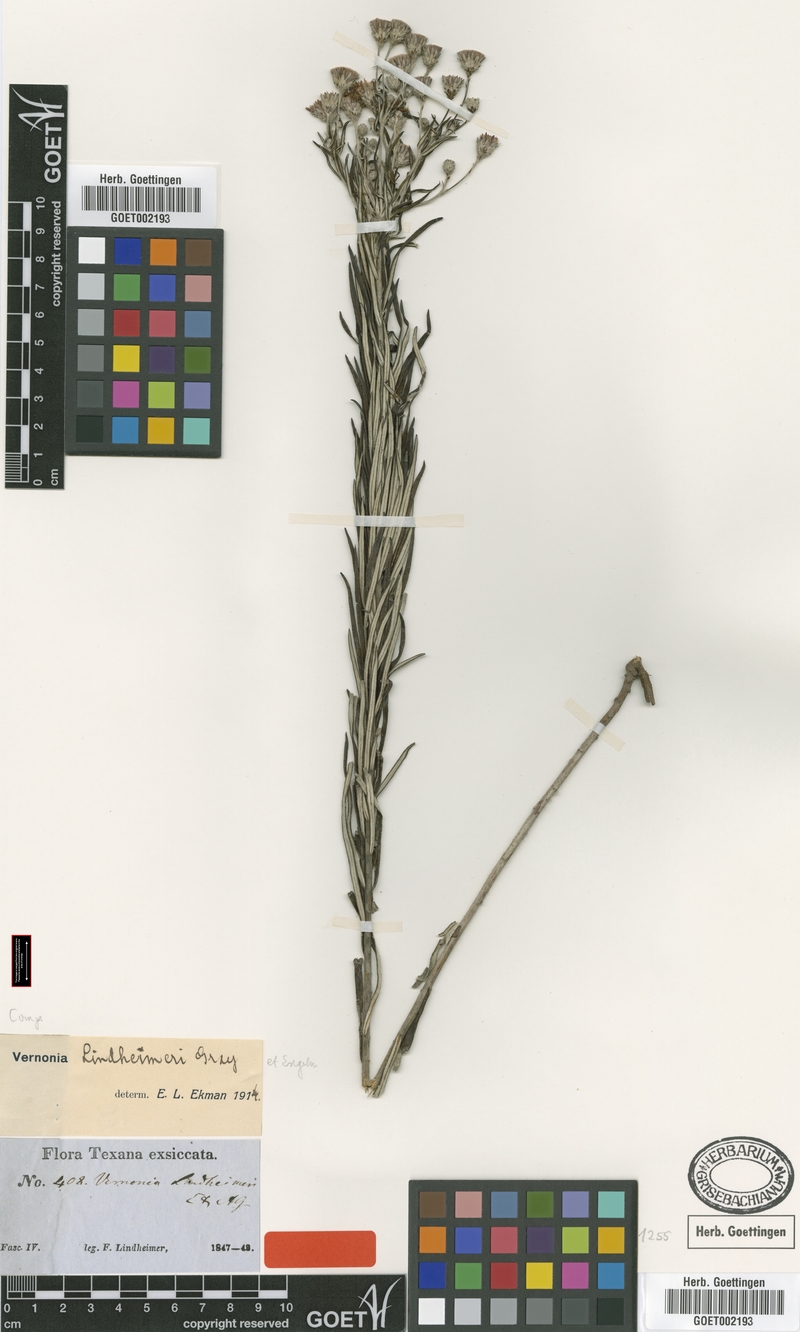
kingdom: Plantae
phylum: Tracheophyta
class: Magnoliopsida
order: Asterales
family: Asteraceae
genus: Vernonia
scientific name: Vernonia lindheimeri
